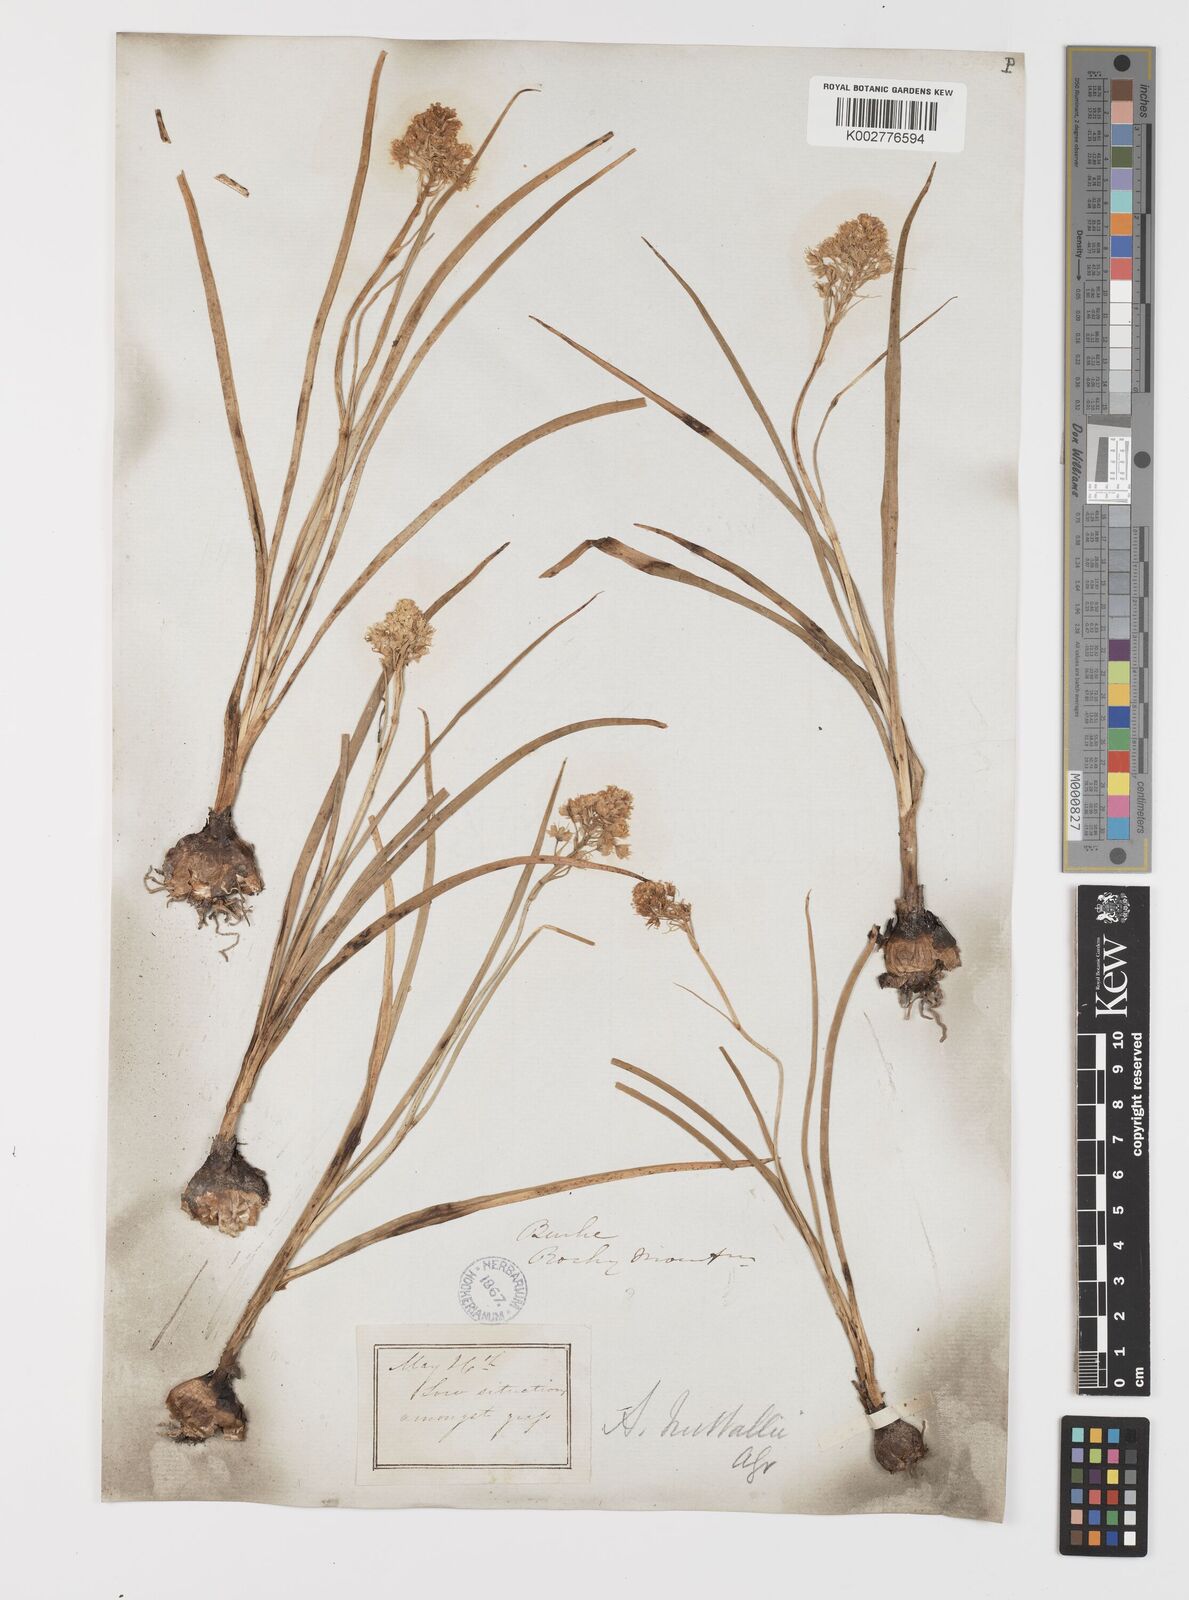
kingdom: Plantae
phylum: Tracheophyta
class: Liliopsida
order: Liliales
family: Melanthiaceae
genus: Toxicoscordion
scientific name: Toxicoscordion nuttallii
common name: Poison sego
